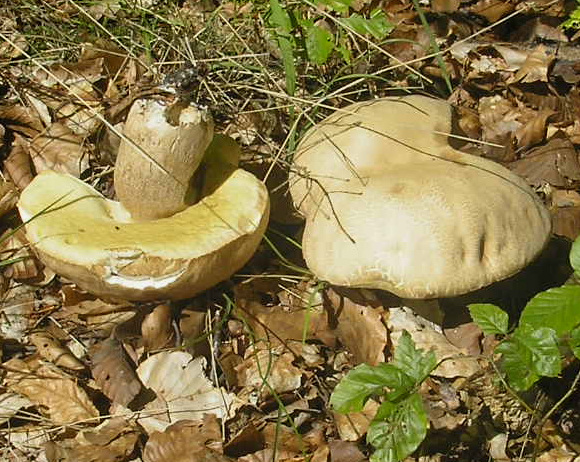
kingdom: Fungi
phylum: Basidiomycota
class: Agaricomycetes
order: Boletales
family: Boletaceae
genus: Boletus
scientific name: Boletus reticulatus
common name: sommer-rørhat
